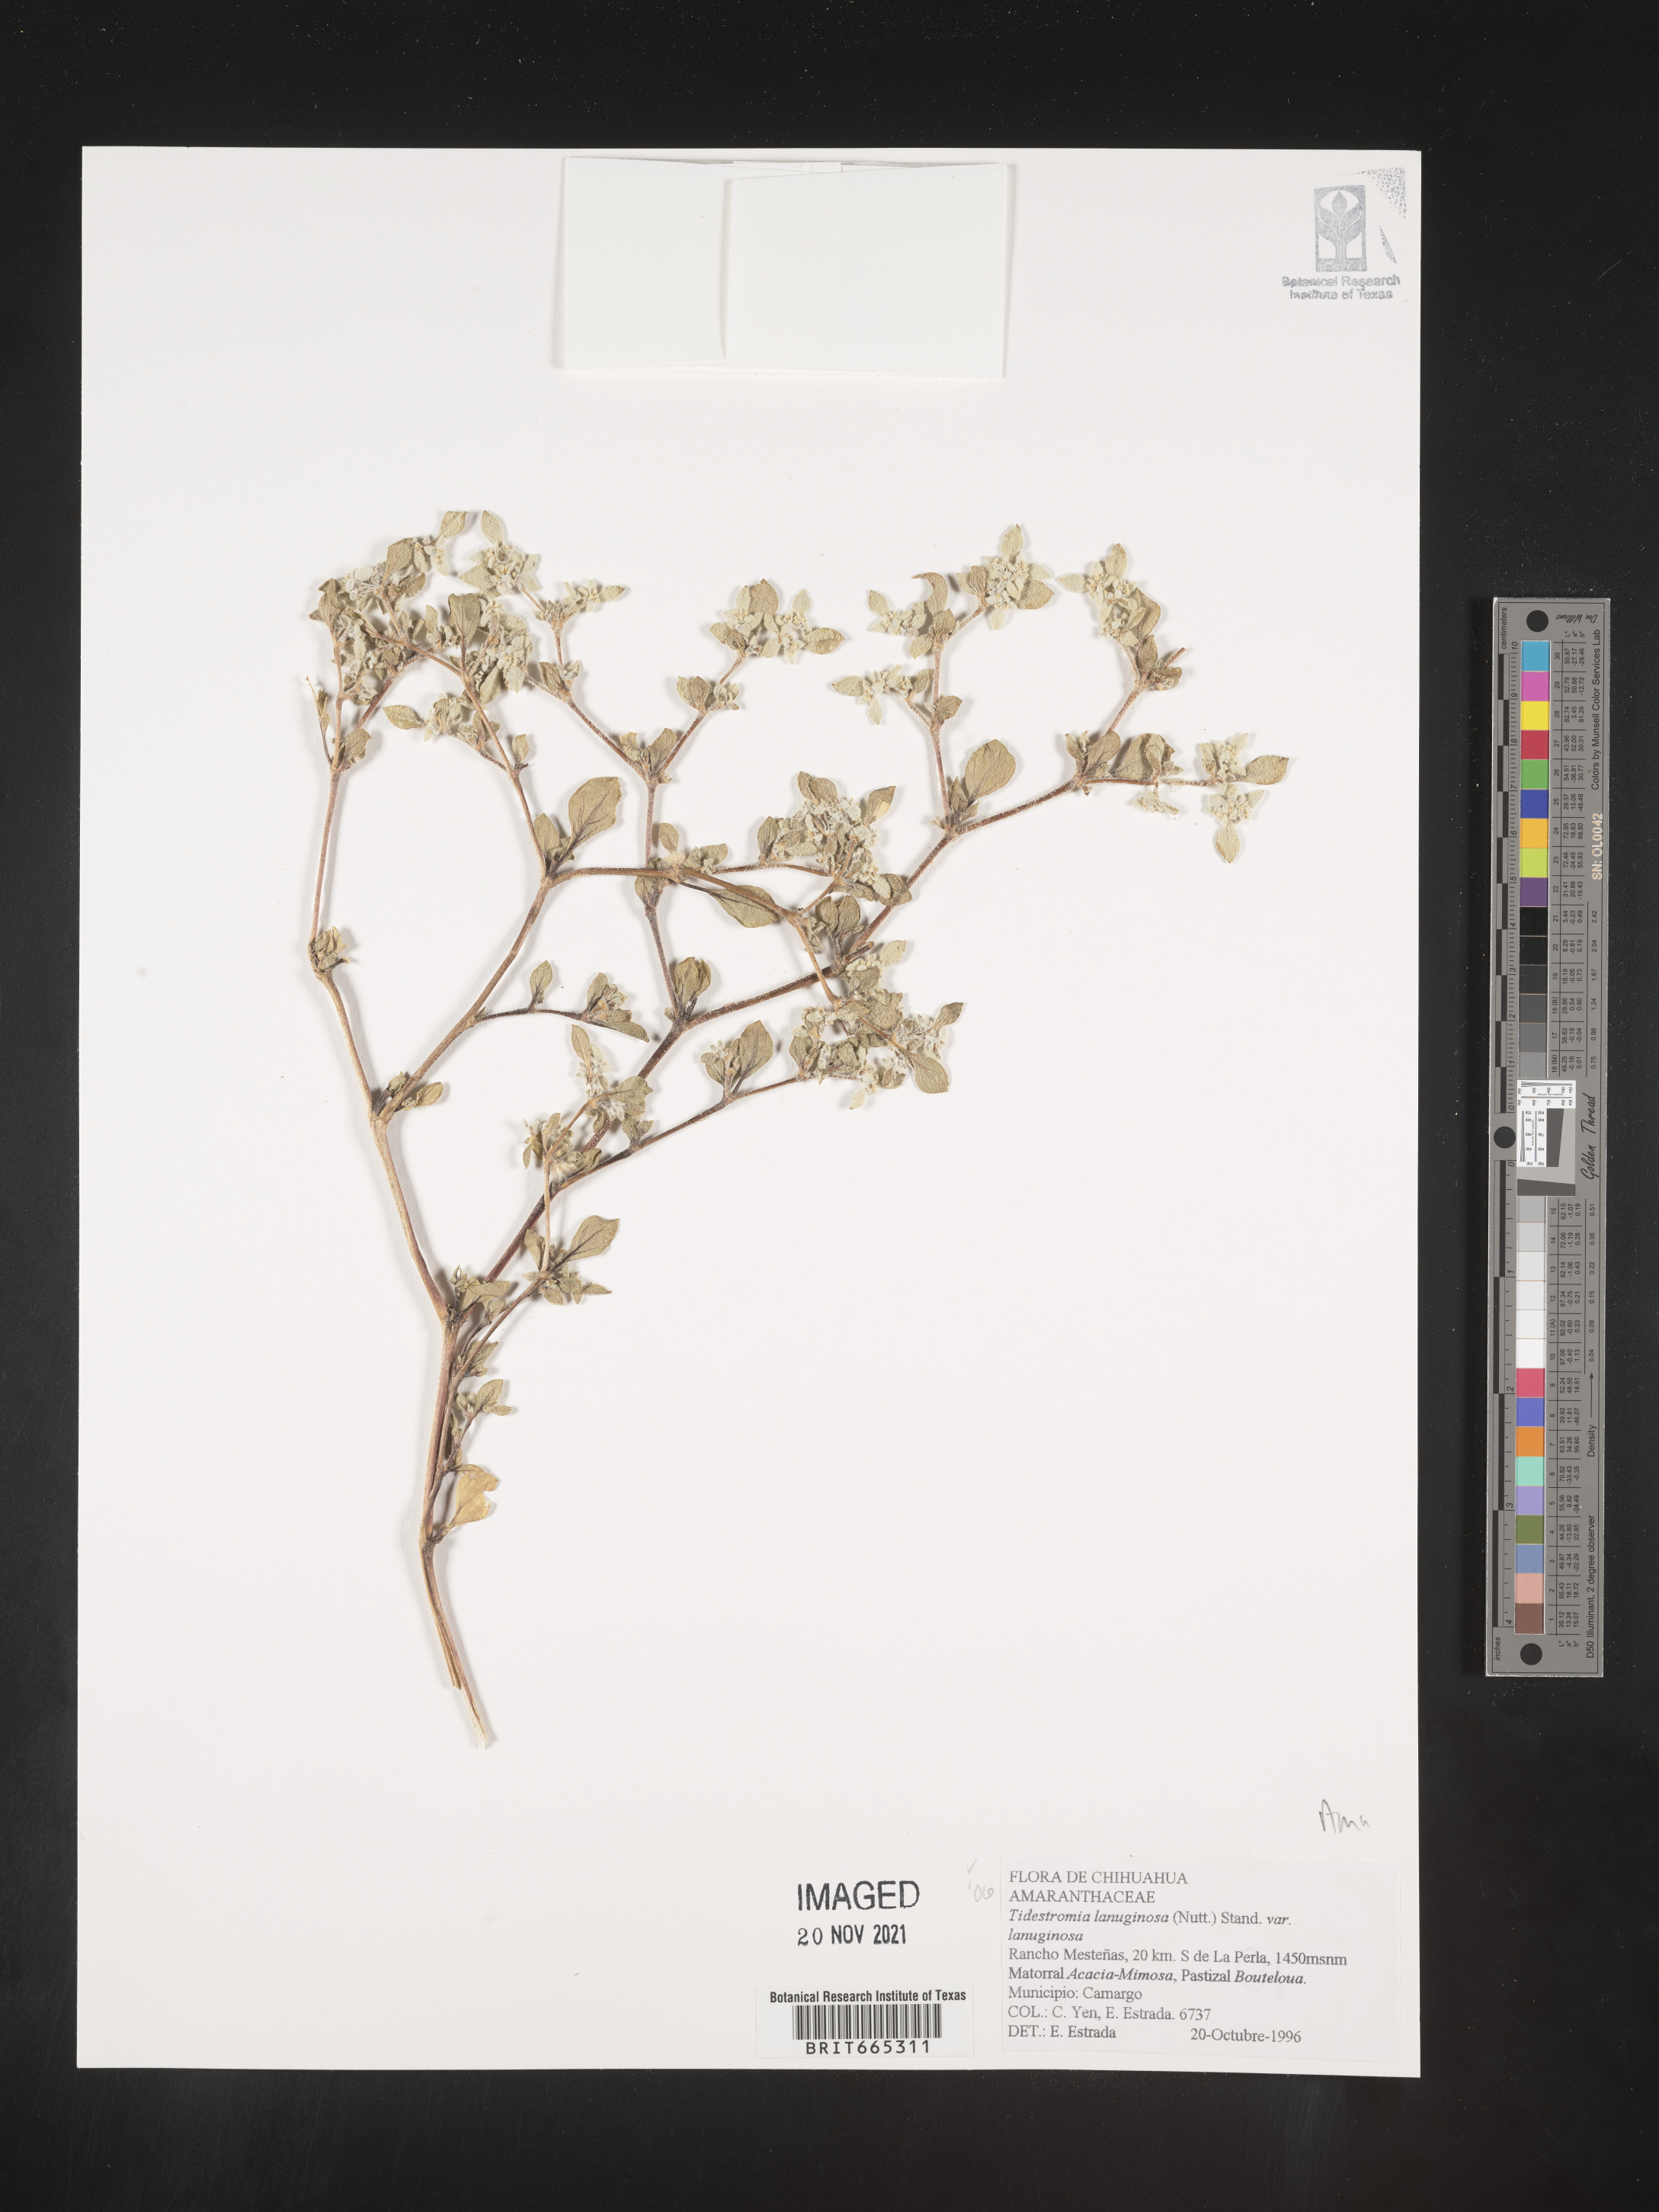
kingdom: Plantae
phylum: Tracheophyta
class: Magnoliopsida
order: Caryophyllales
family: Amaranthaceae
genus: Tidestromia
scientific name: Tidestromia
